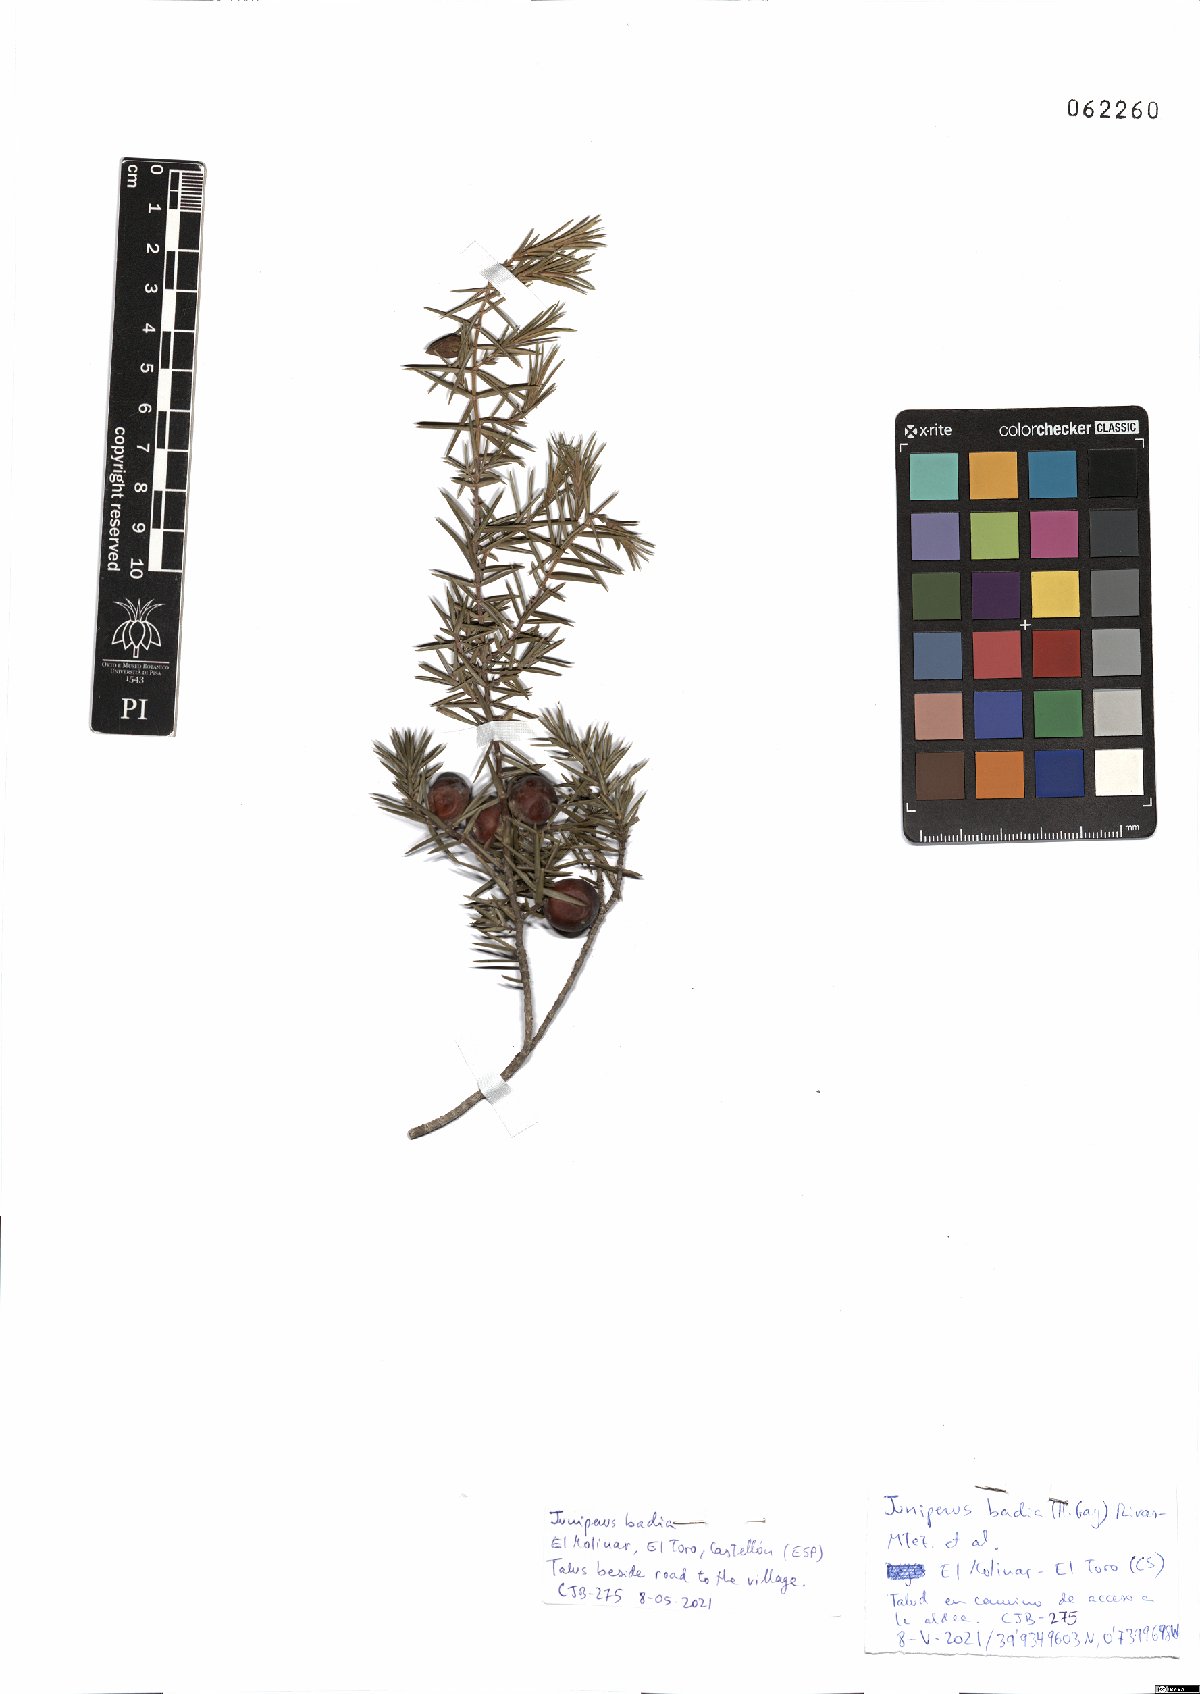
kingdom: Plantae
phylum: Tracheophyta
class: Pinopsida
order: Pinales
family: Cupressaceae
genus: Juniperus
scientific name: Juniperus oxycedrus
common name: Prickly juniper
